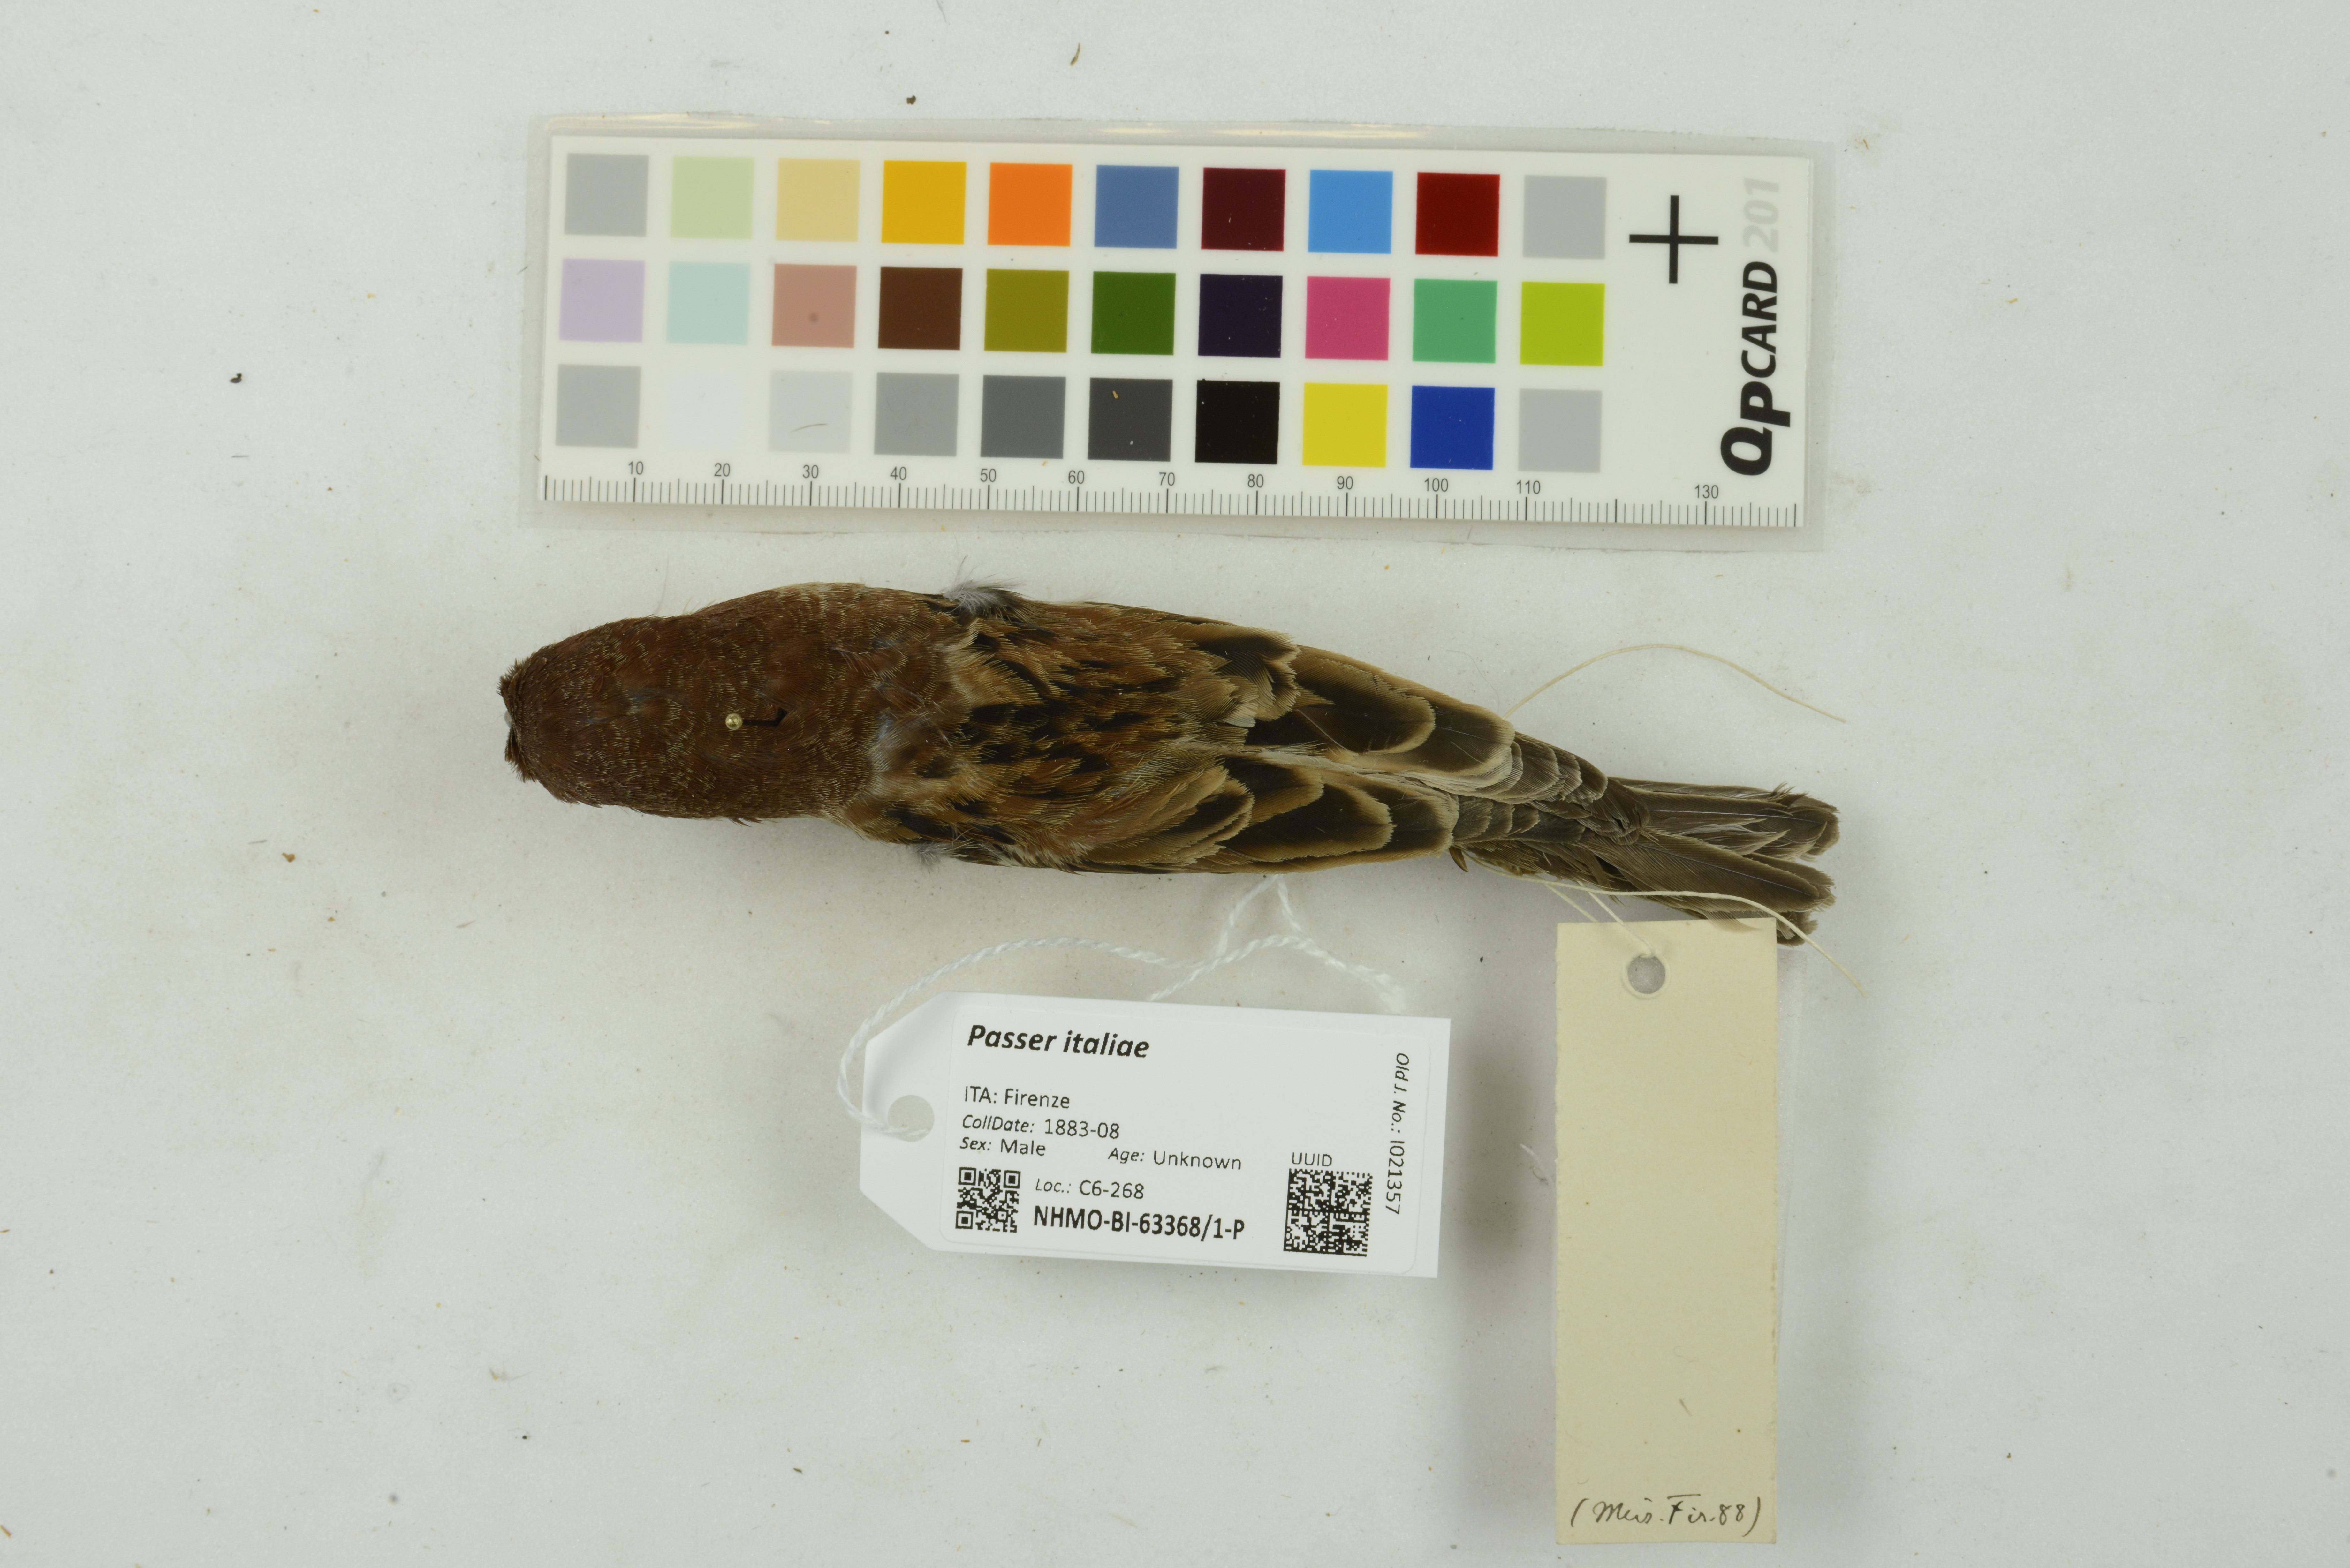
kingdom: Animalia
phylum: Chordata
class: Aves
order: Passeriformes
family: Passeridae
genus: Passer
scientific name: Passer italiae
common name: Italian sparrow
